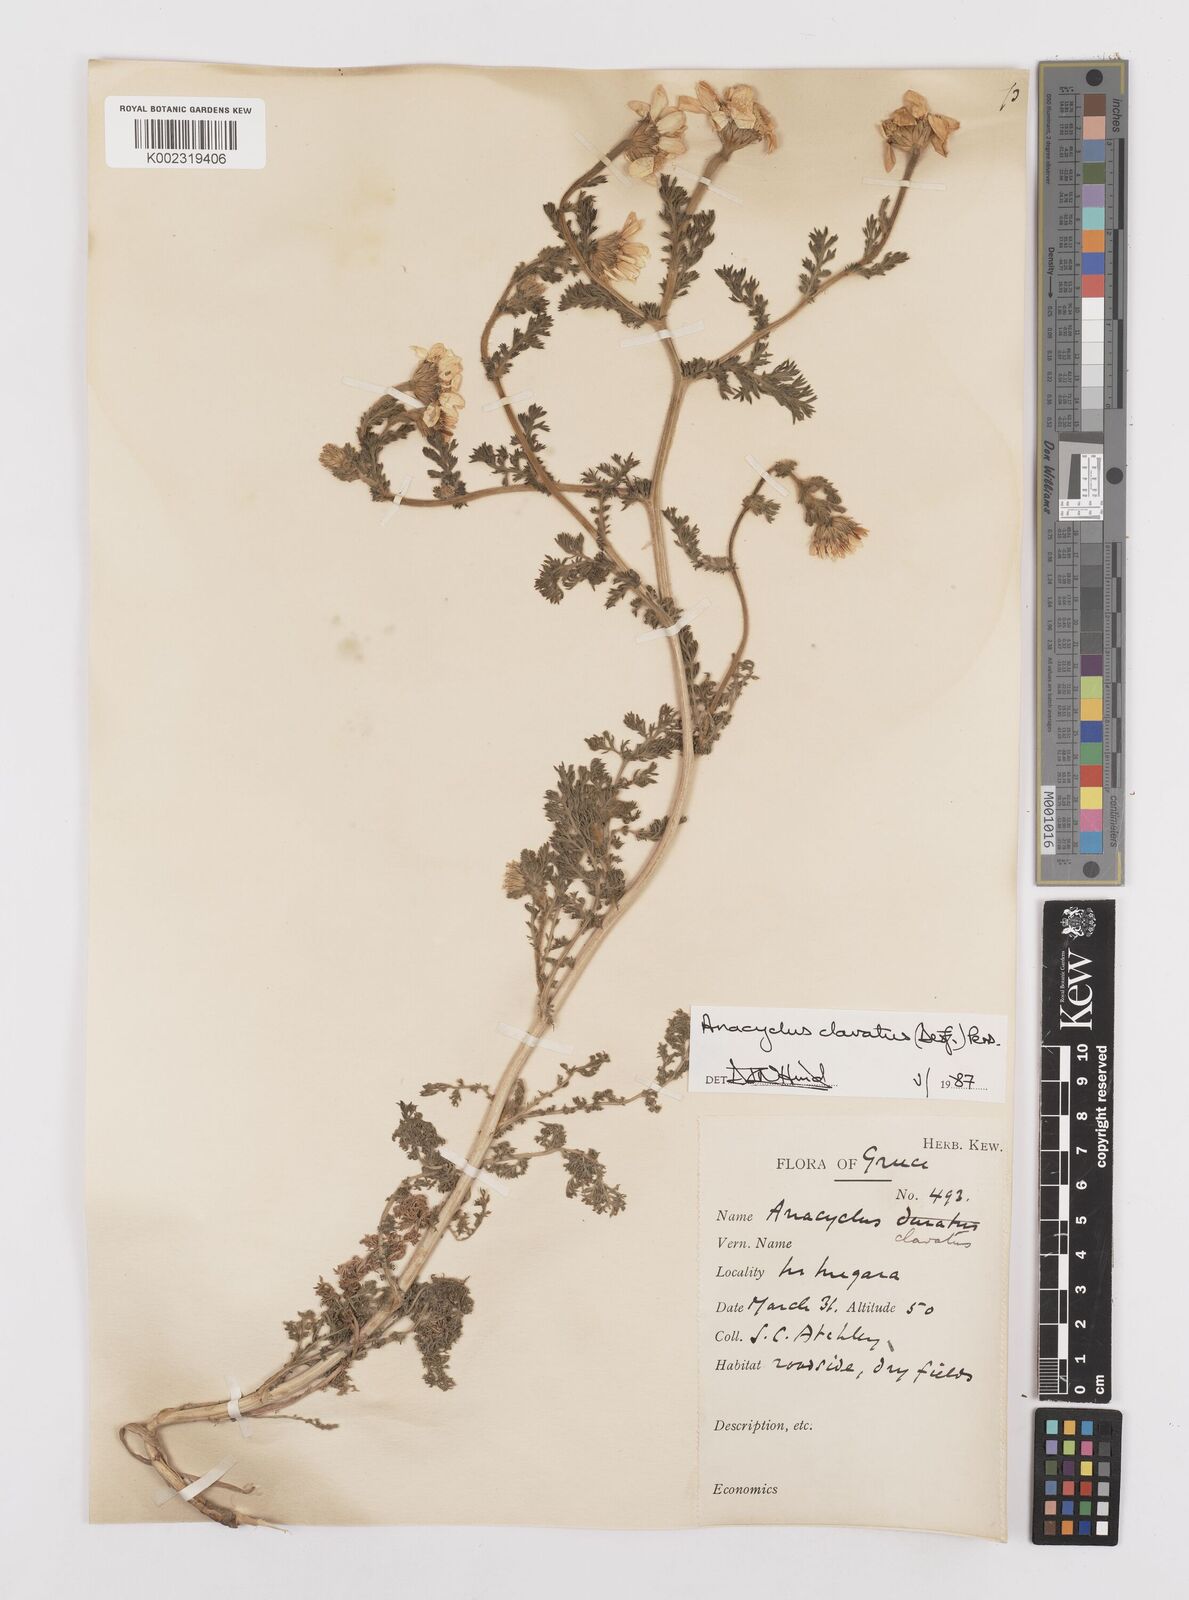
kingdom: Plantae
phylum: Tracheophyta
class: Magnoliopsida
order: Asterales
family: Asteraceae
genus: Anacyclus
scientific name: Anacyclus clavatus
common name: Whitebuttons
